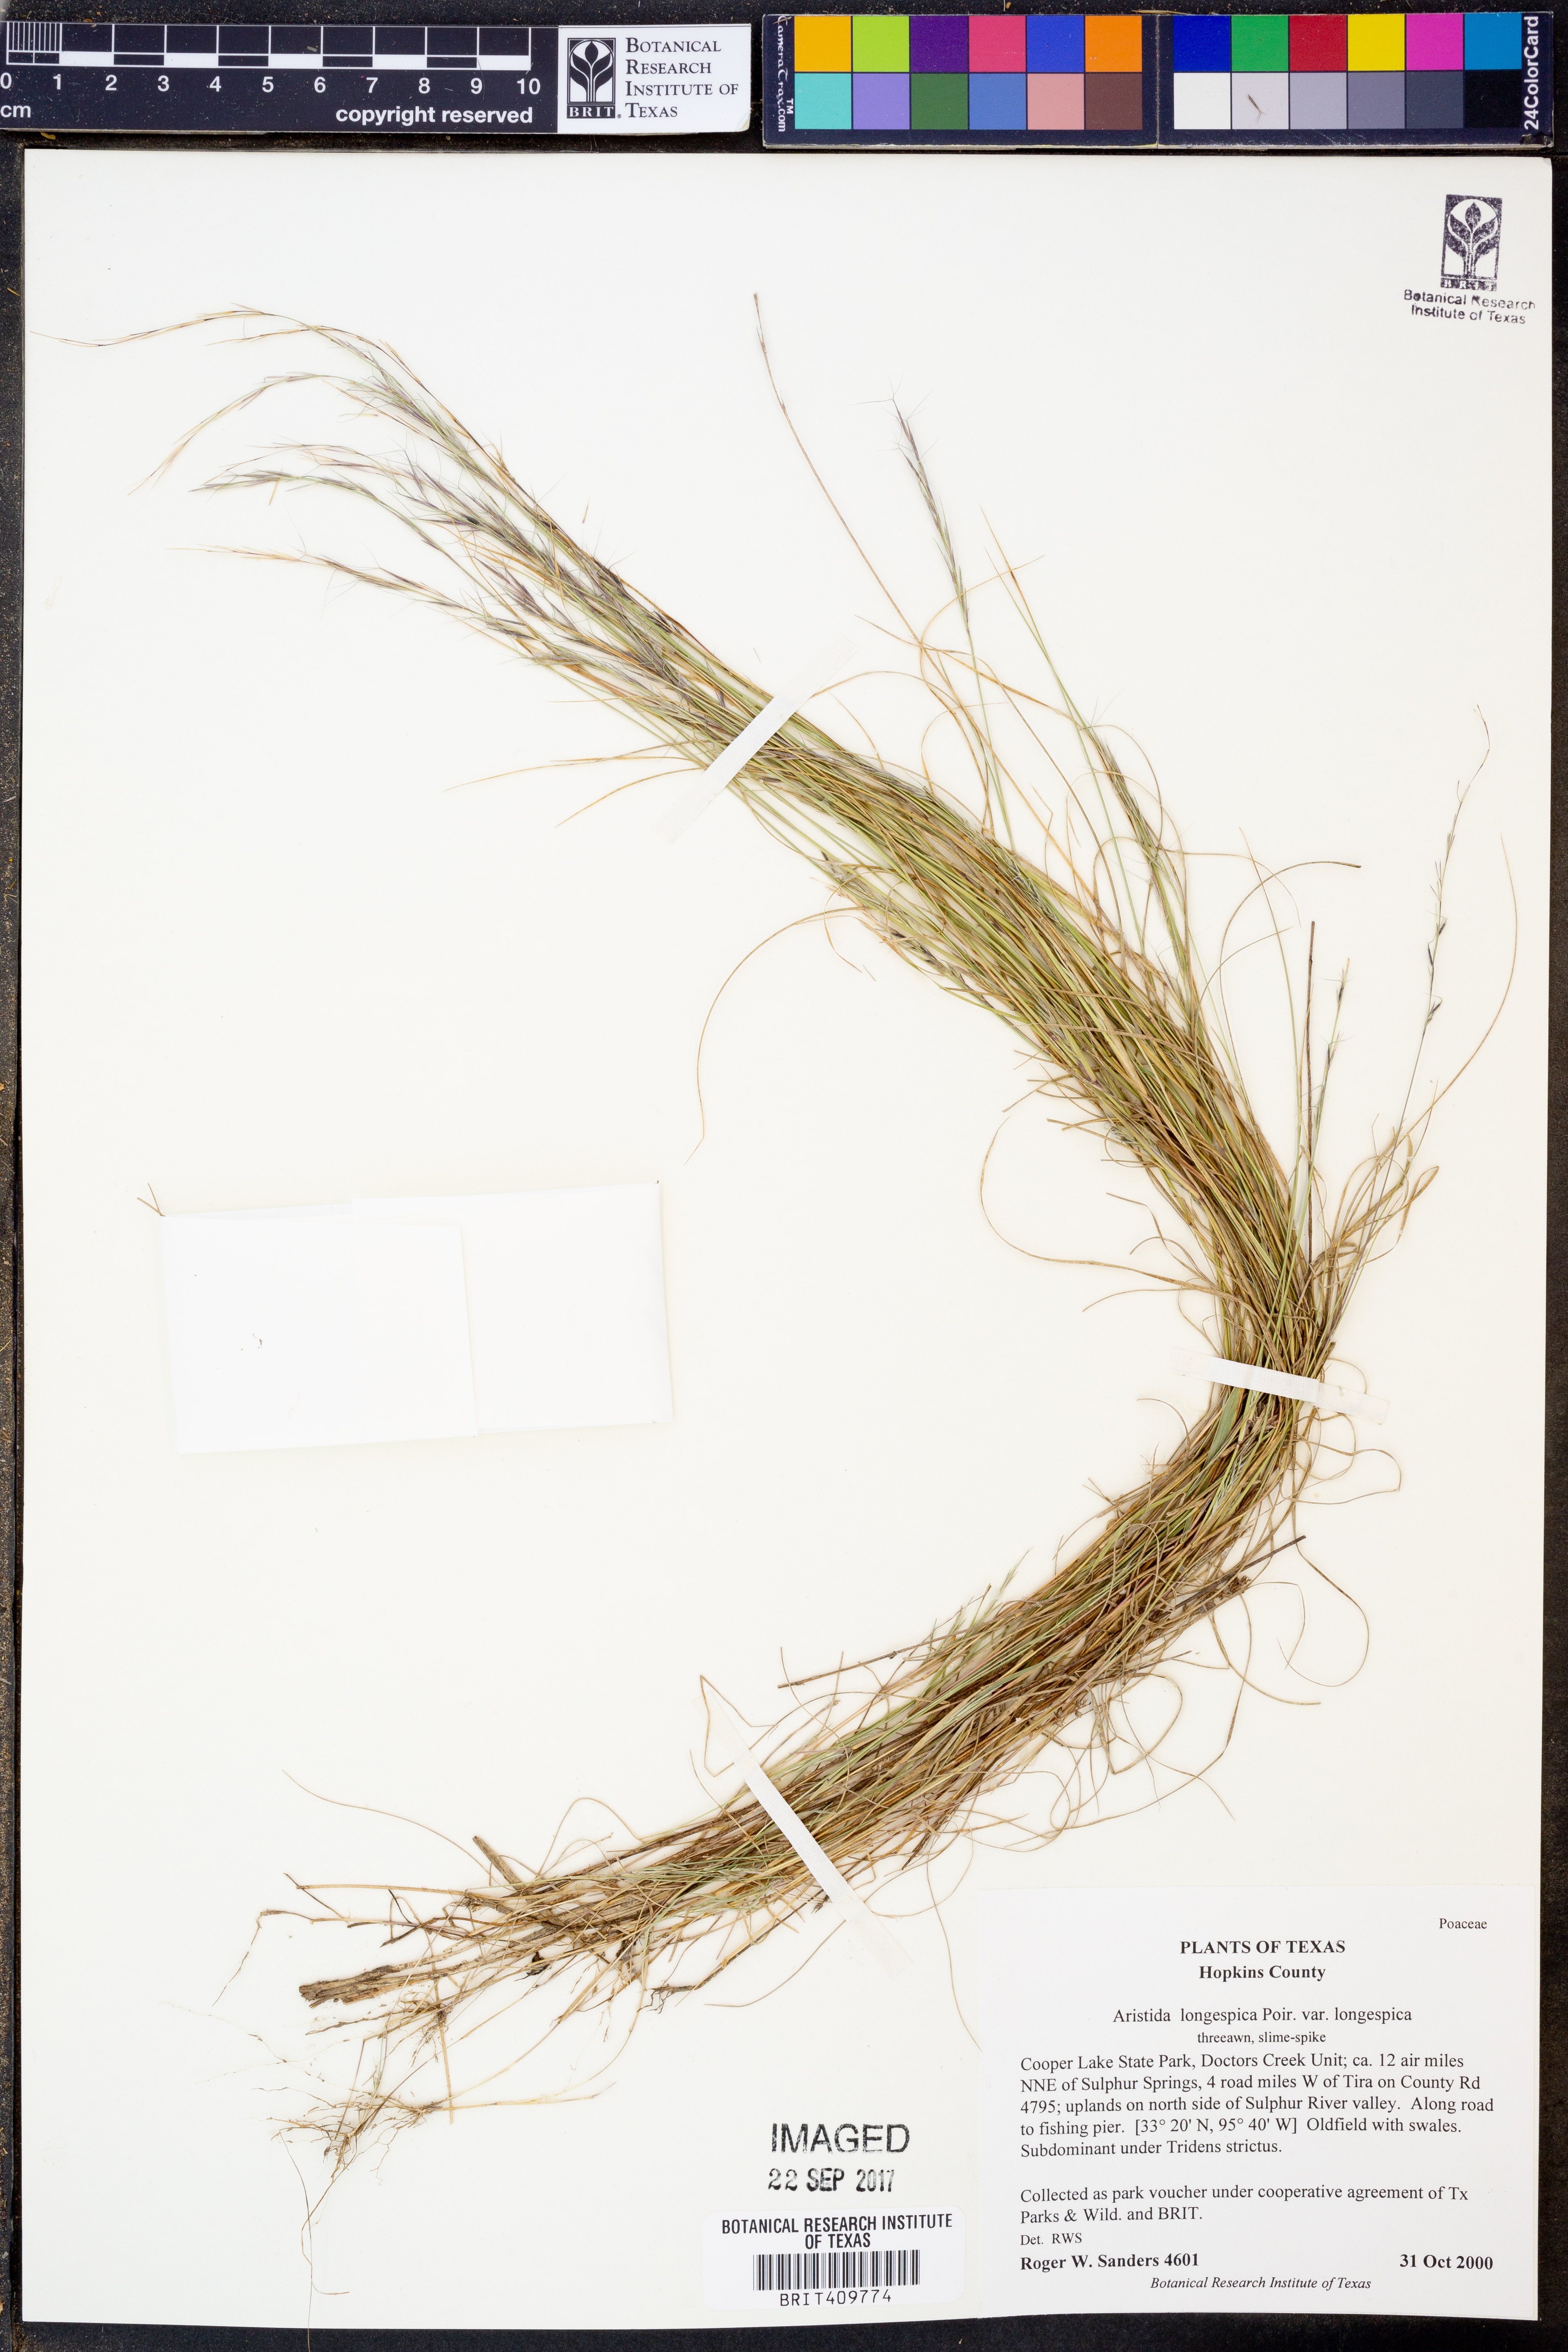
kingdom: Plantae
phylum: Tracheophyta
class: Liliopsida
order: Poales
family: Poaceae
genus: Aristida
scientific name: Aristida longespica
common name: Long-spiked triple-awned grass
